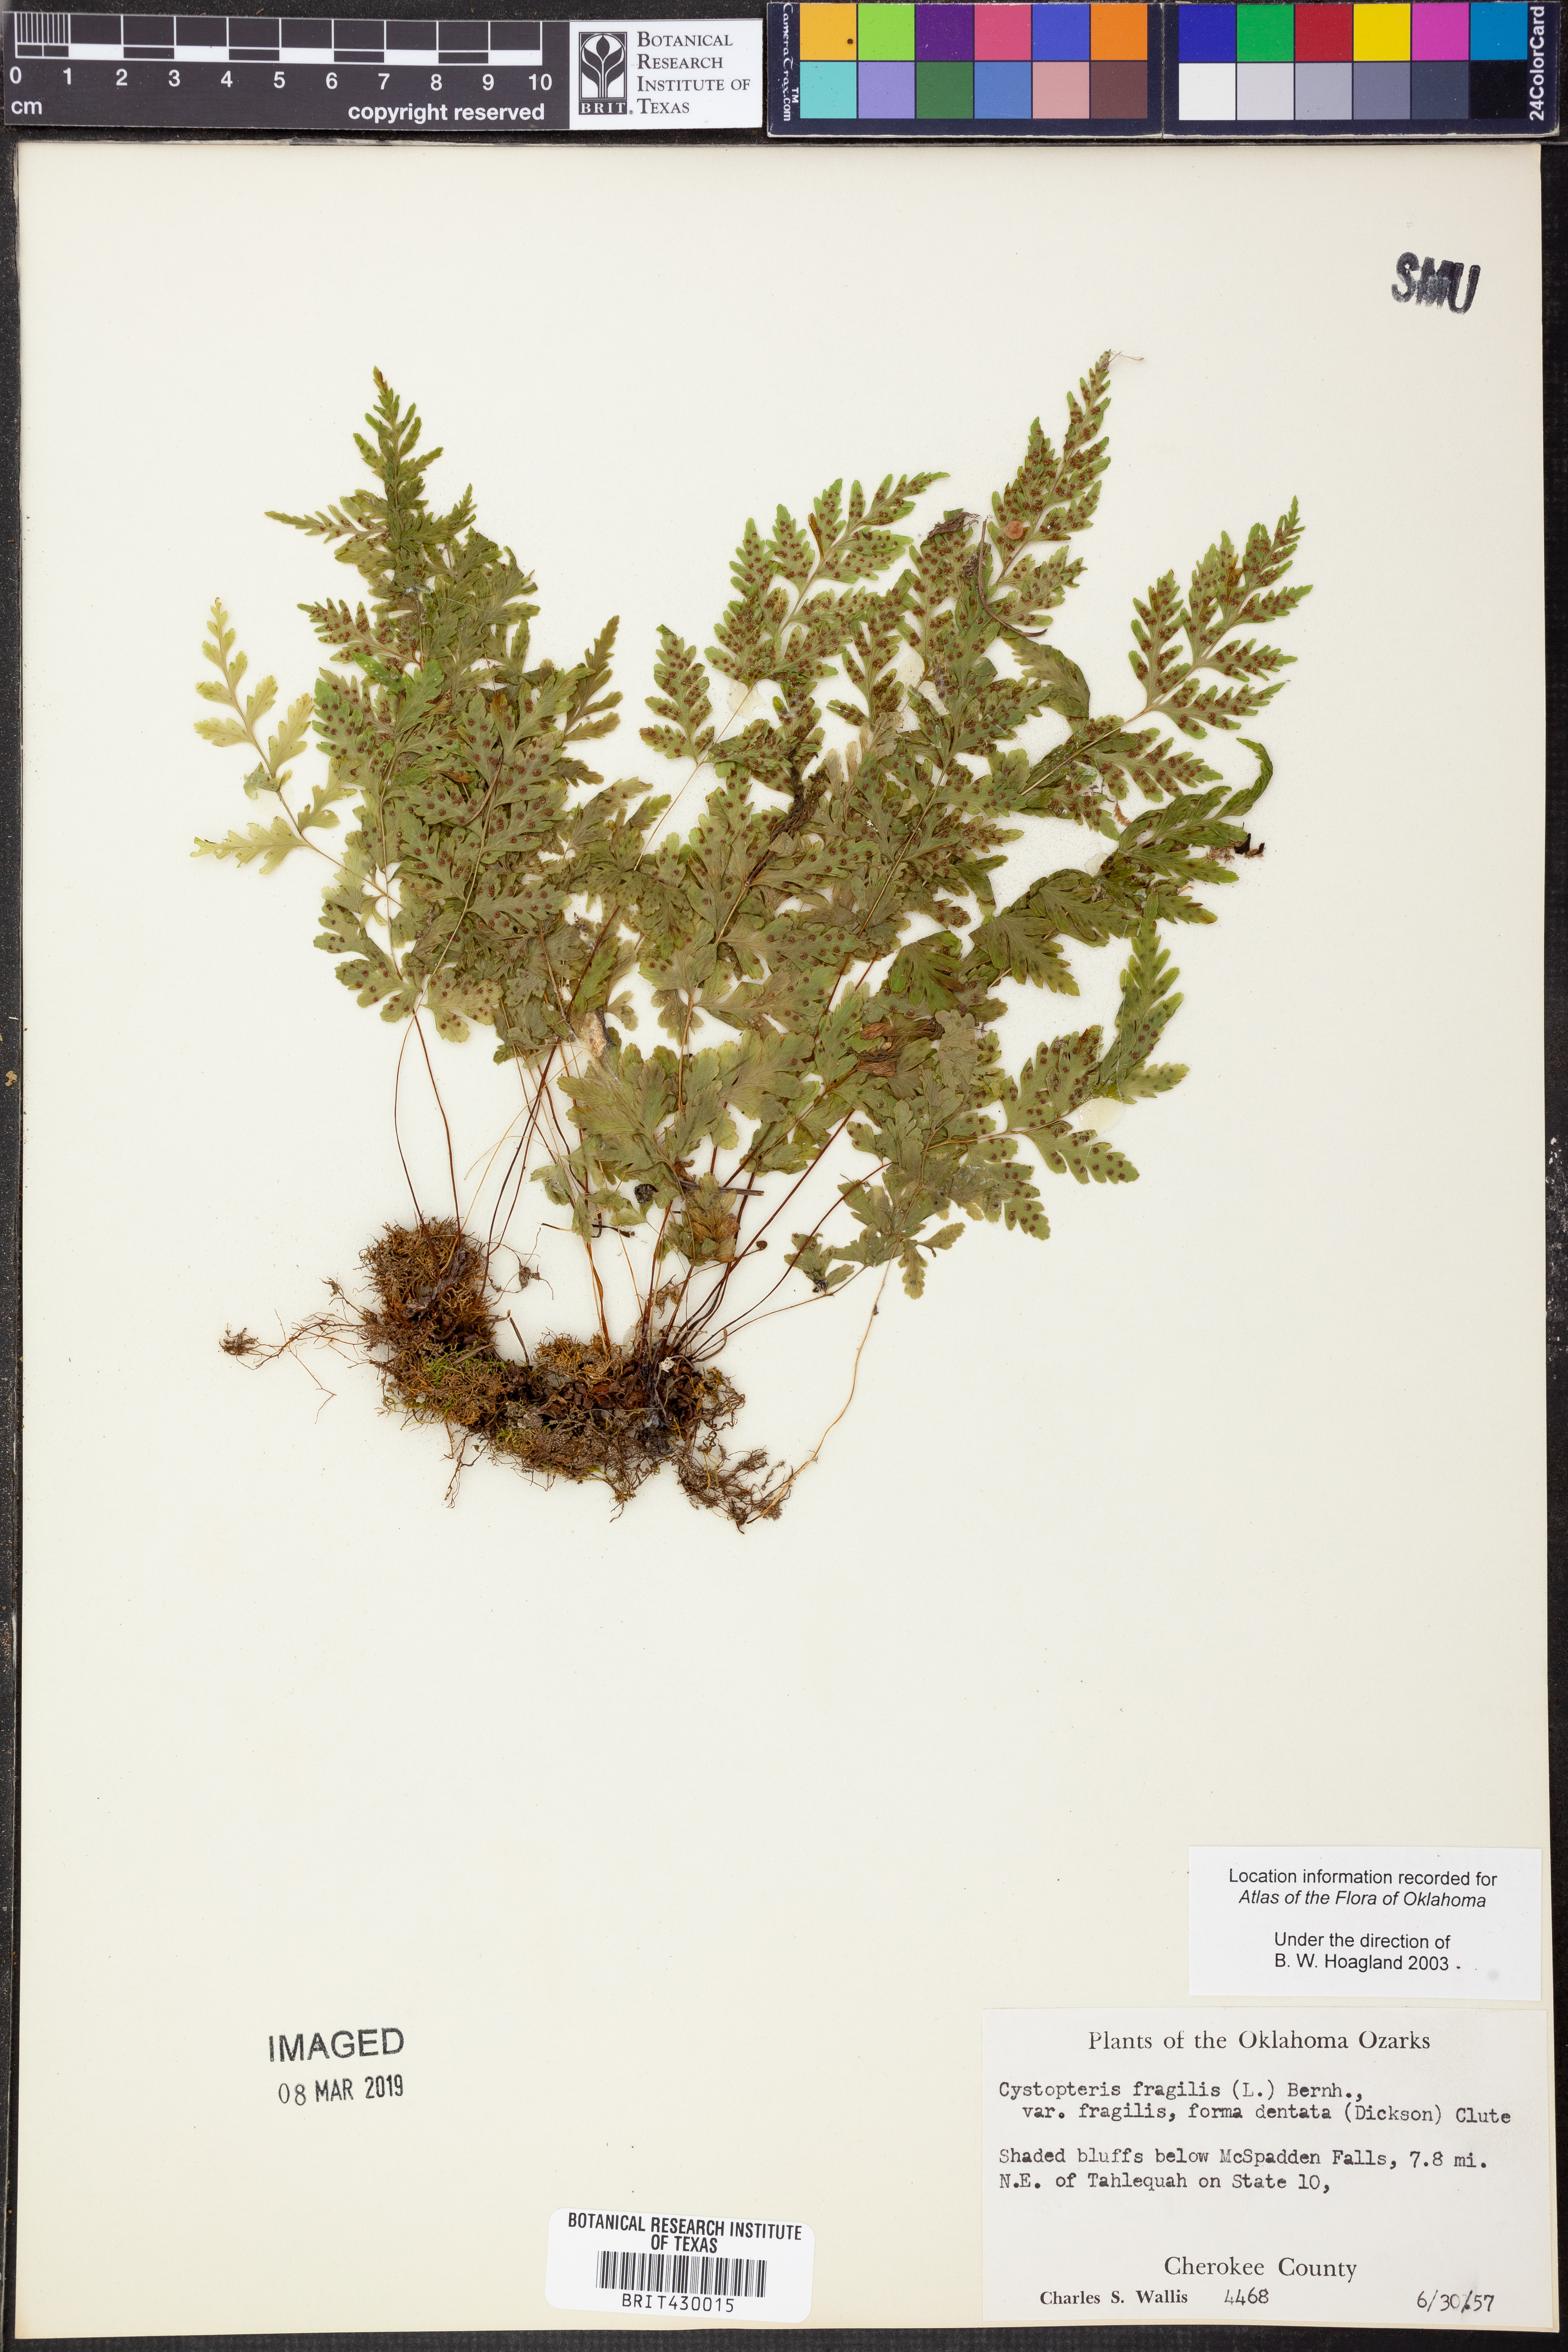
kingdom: Plantae
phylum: Tracheophyta
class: Polypodiopsida
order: Polypodiales
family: Cystopteridaceae
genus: Cystopteris
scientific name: Cystopteris fragilis
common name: Brittle bladder fern
